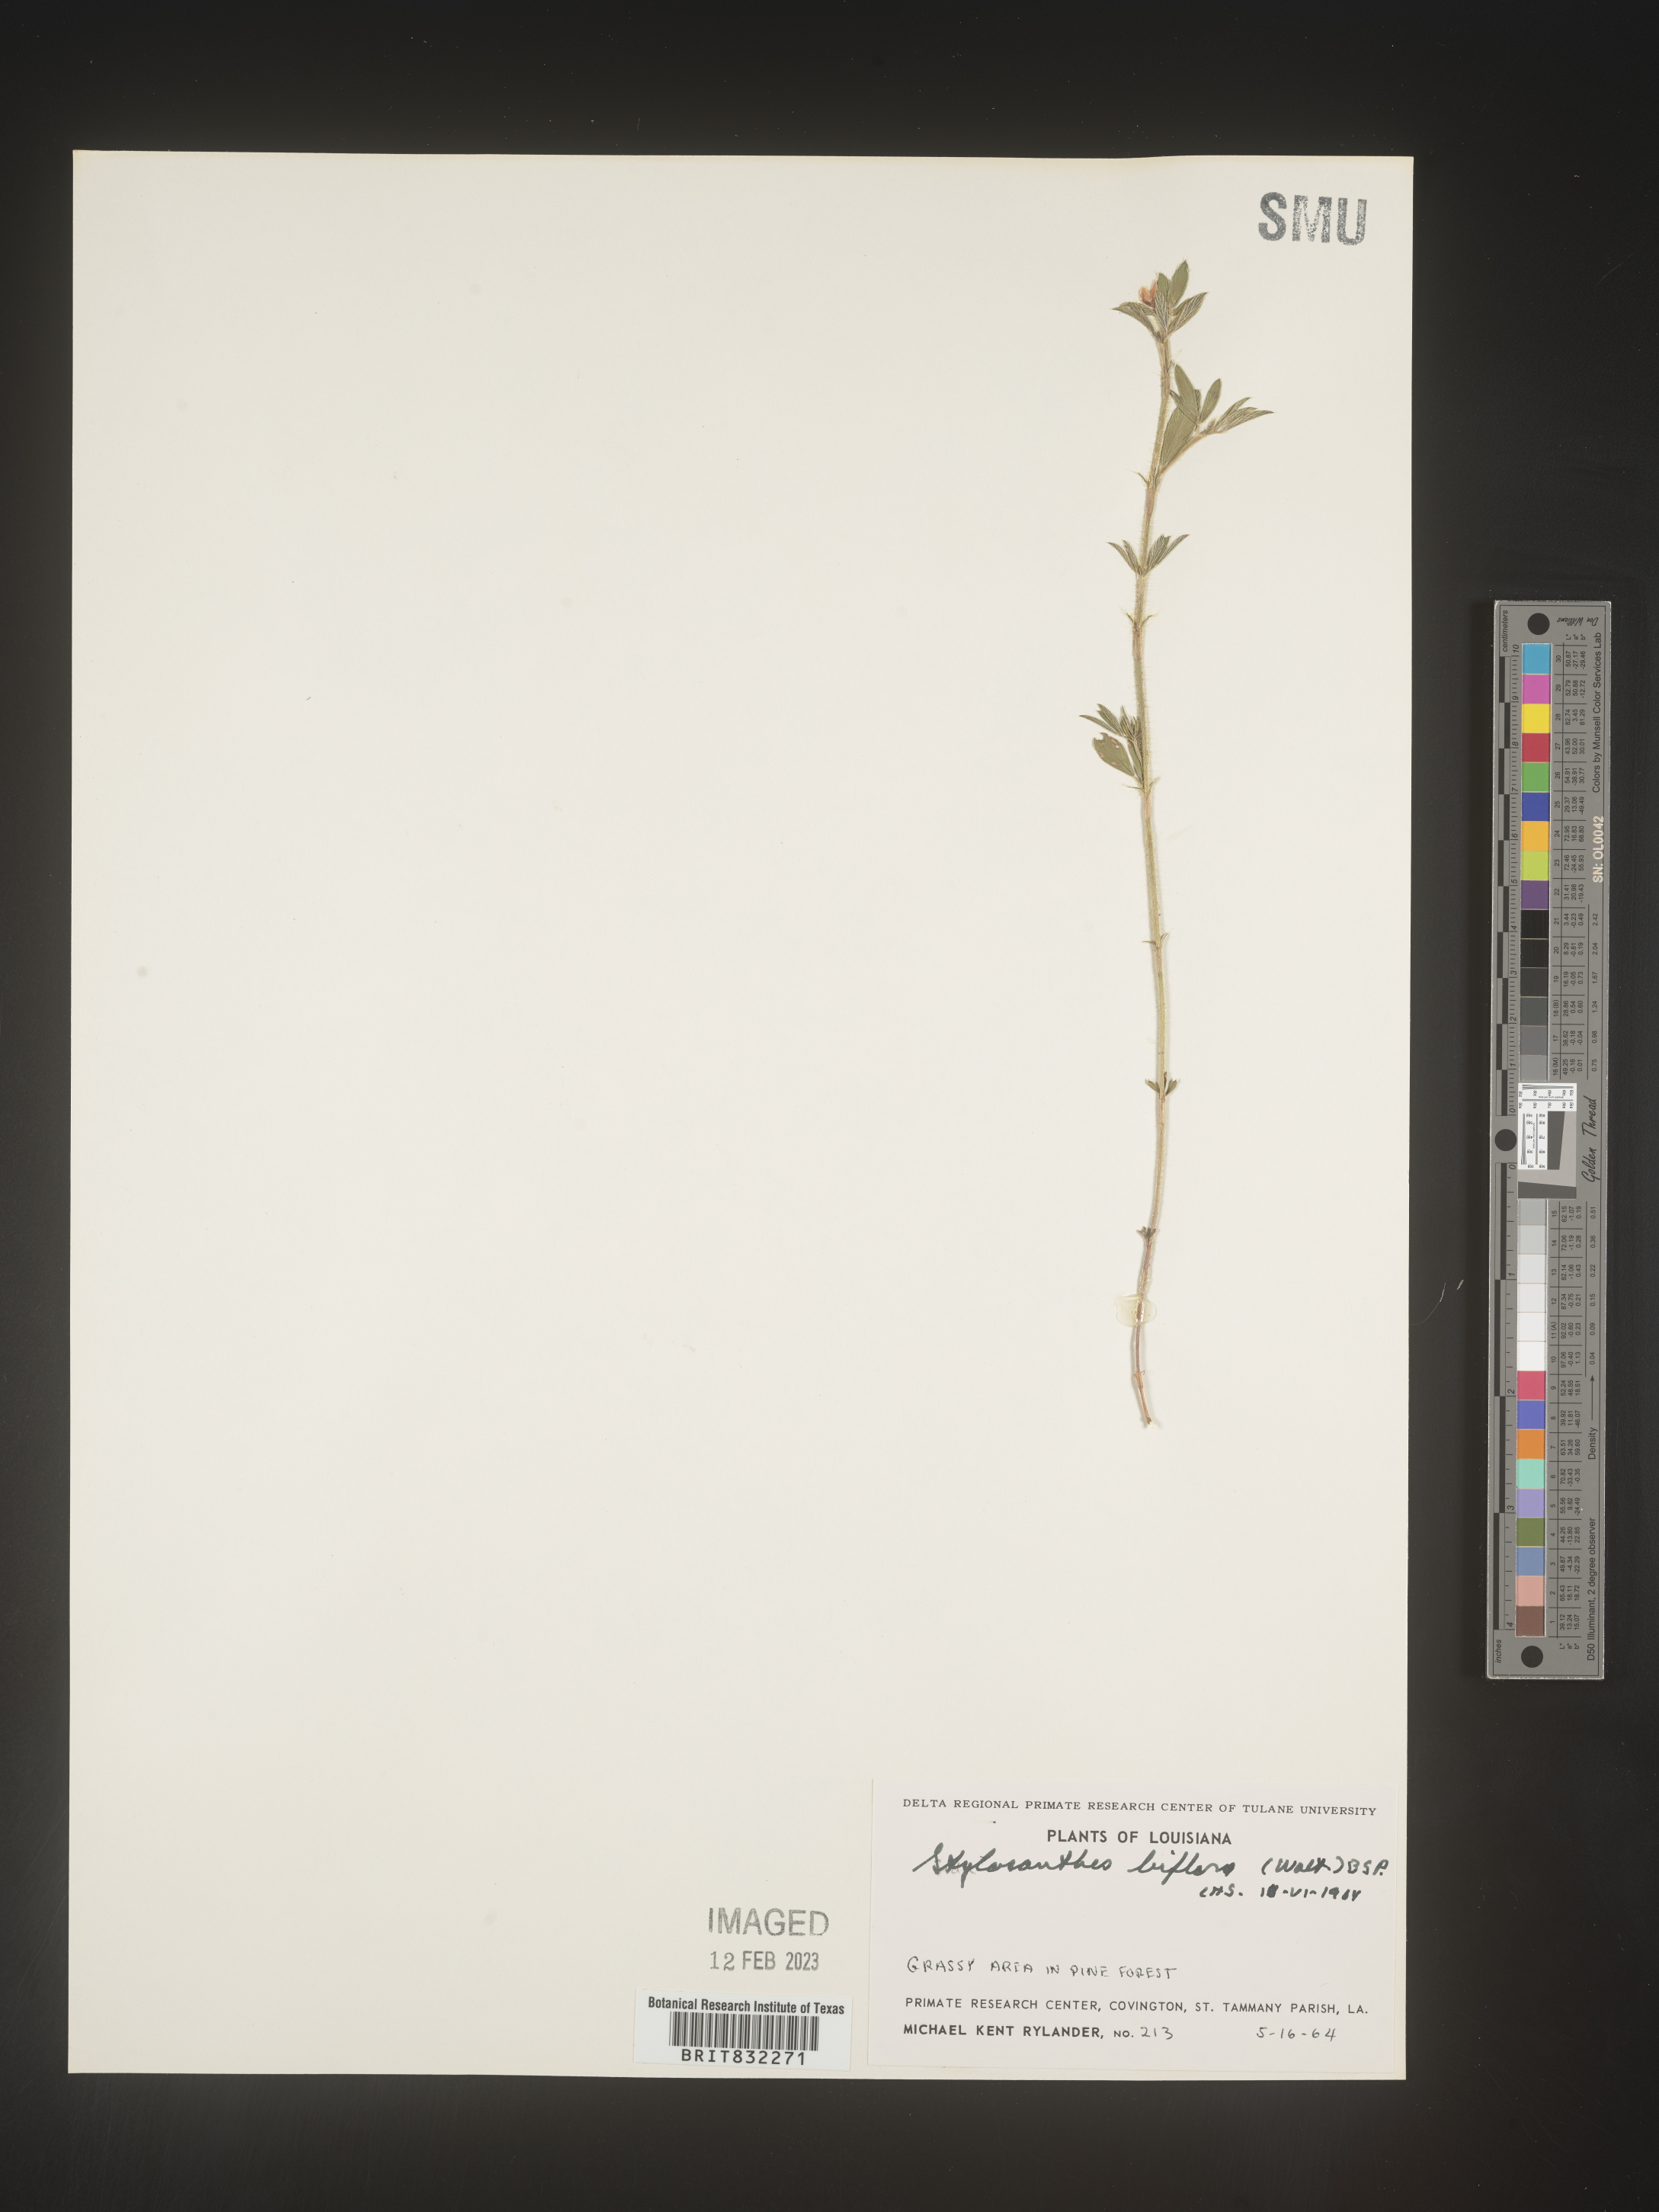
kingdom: Plantae
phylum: Tracheophyta
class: Magnoliopsida
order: Fabales
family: Fabaceae
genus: Stylosanthes
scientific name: Stylosanthes biflora
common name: Two-flower pencil-flower
